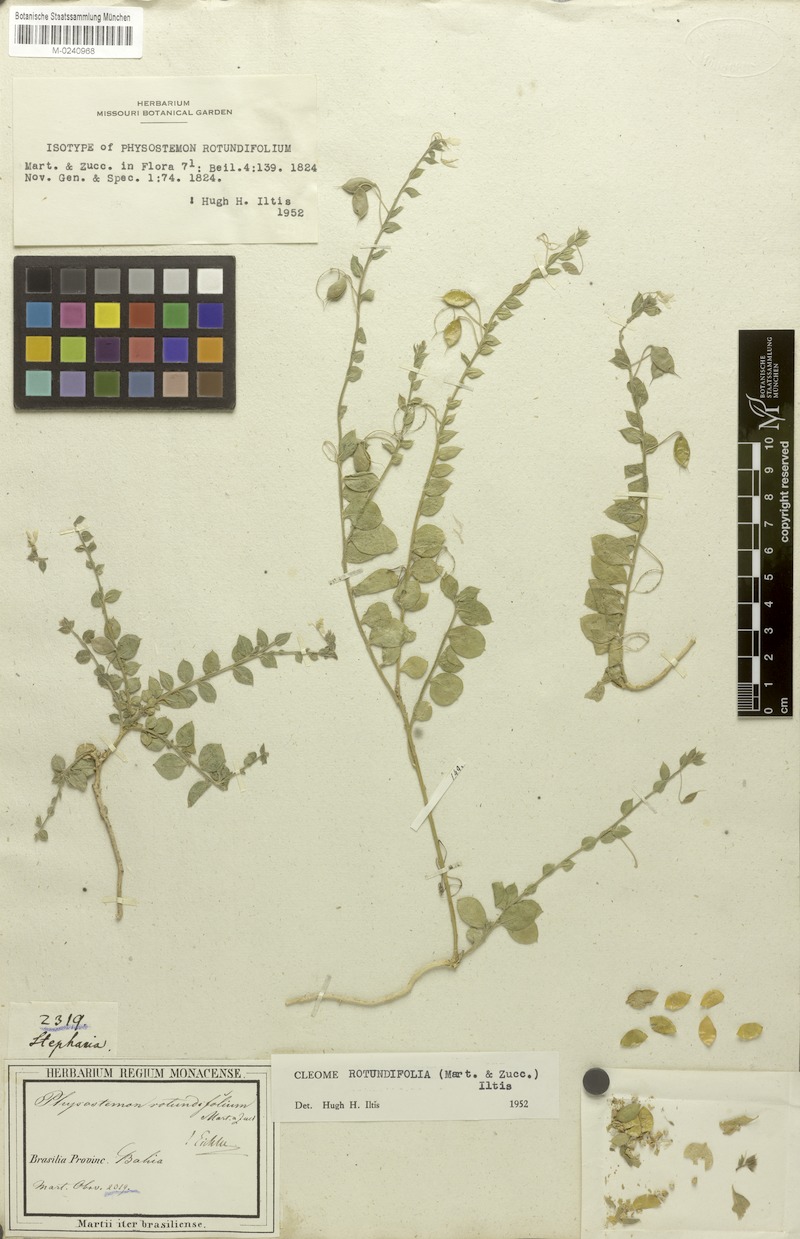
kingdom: Plantae
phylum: Tracheophyta
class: Magnoliopsida
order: Brassicales
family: Cleomaceae
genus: Physostemon
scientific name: Physostemon rotundifolius
